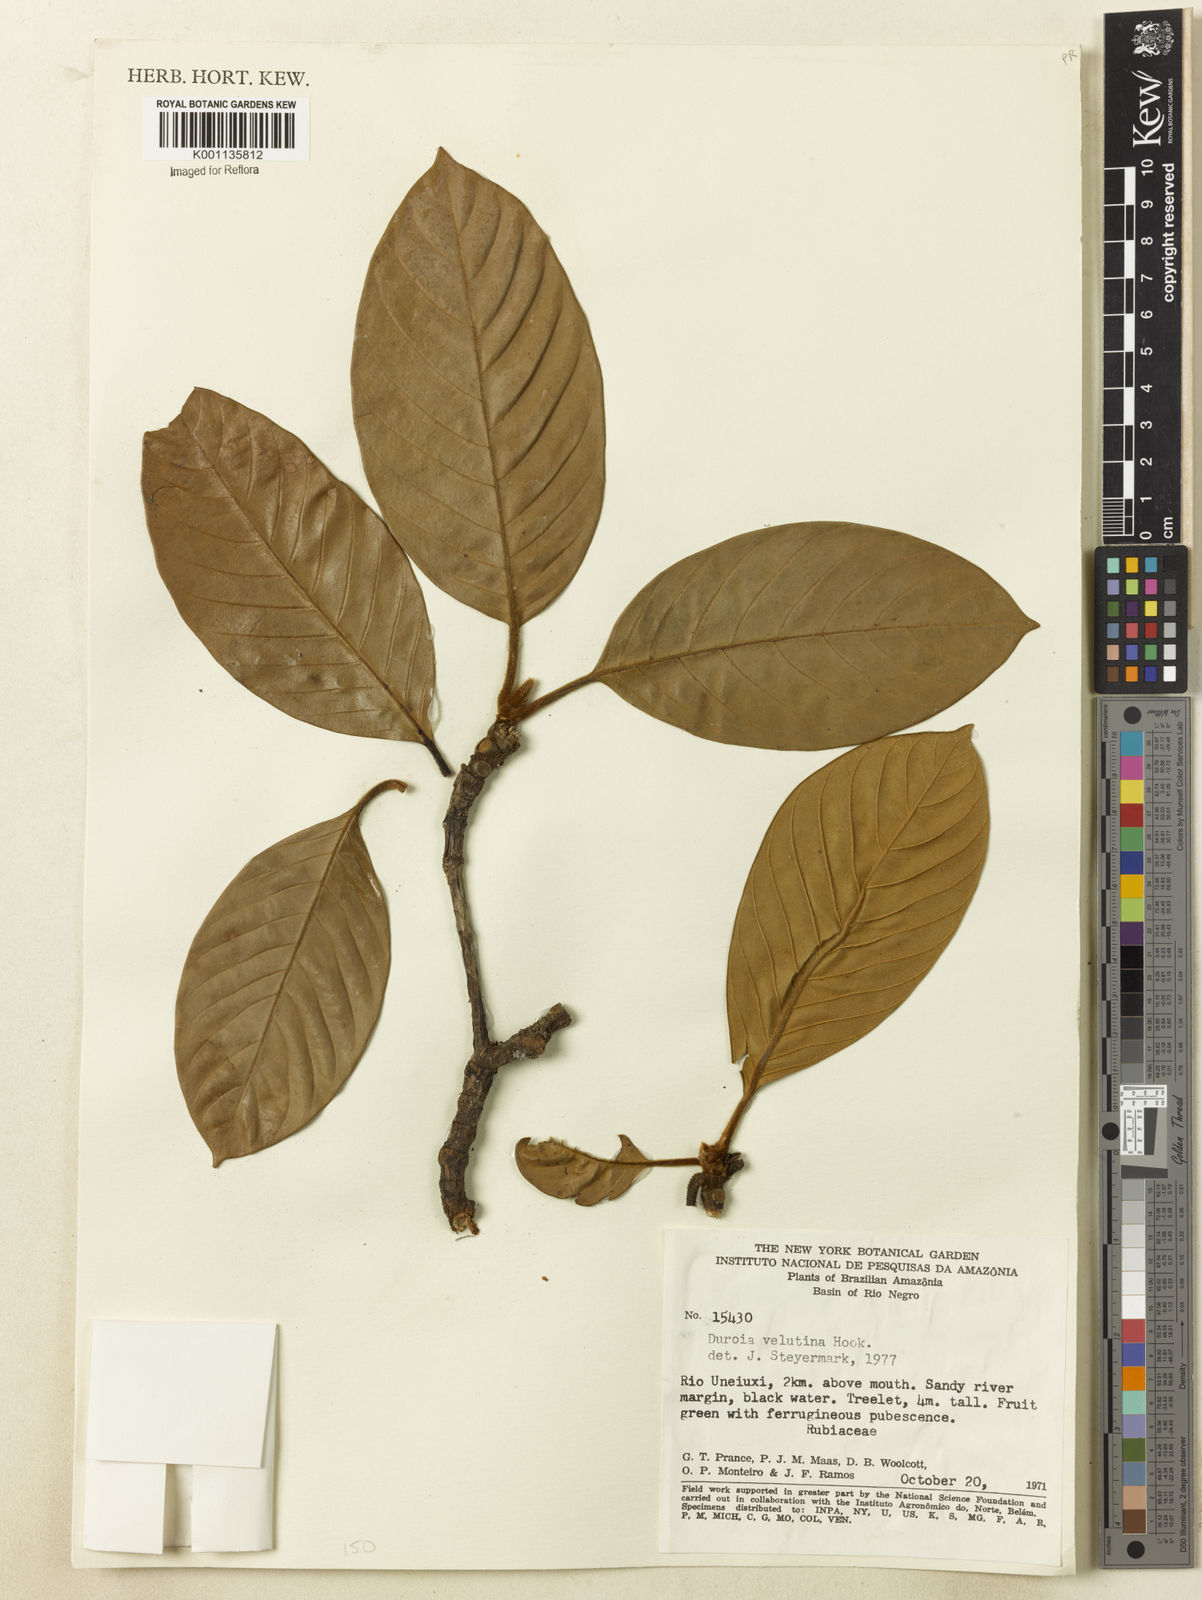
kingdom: Plantae
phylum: Tracheophyta
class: Magnoliopsida
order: Gentianales
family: Rubiaceae
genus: Duroia
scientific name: Duroia velutina
